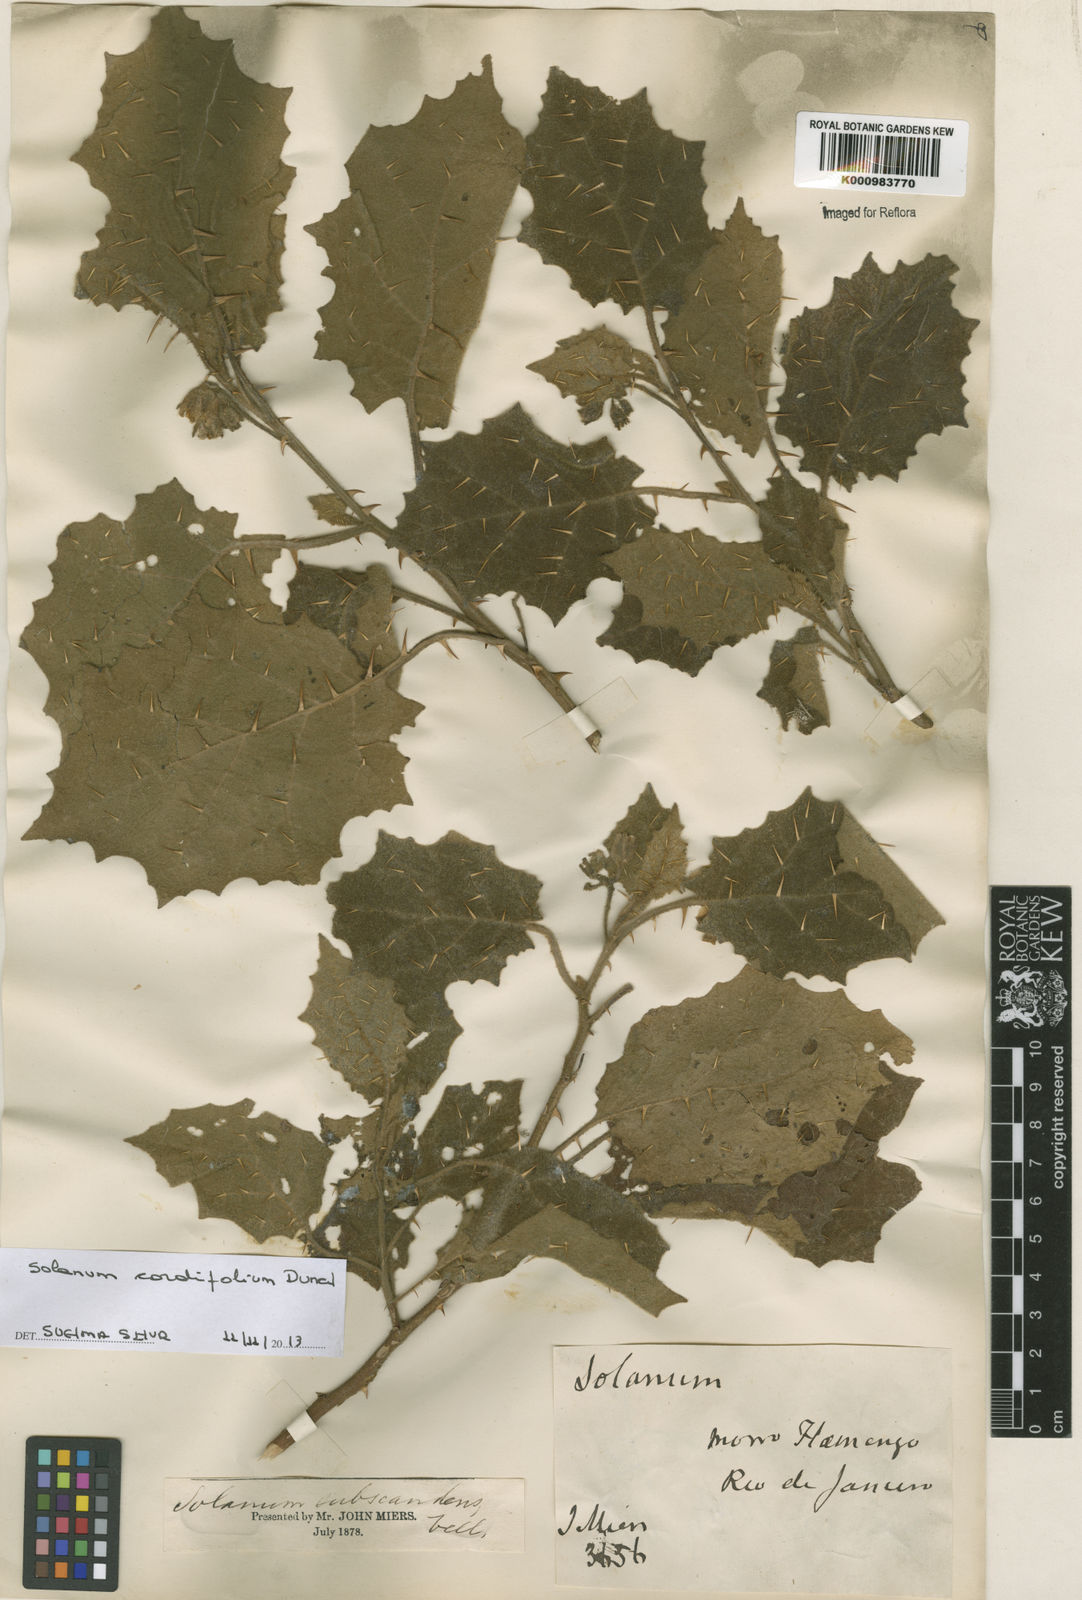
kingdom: Plantae
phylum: Tracheophyta
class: Magnoliopsida
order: Solanales
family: Solanaceae
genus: Solanum
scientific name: Solanum cordifolium
